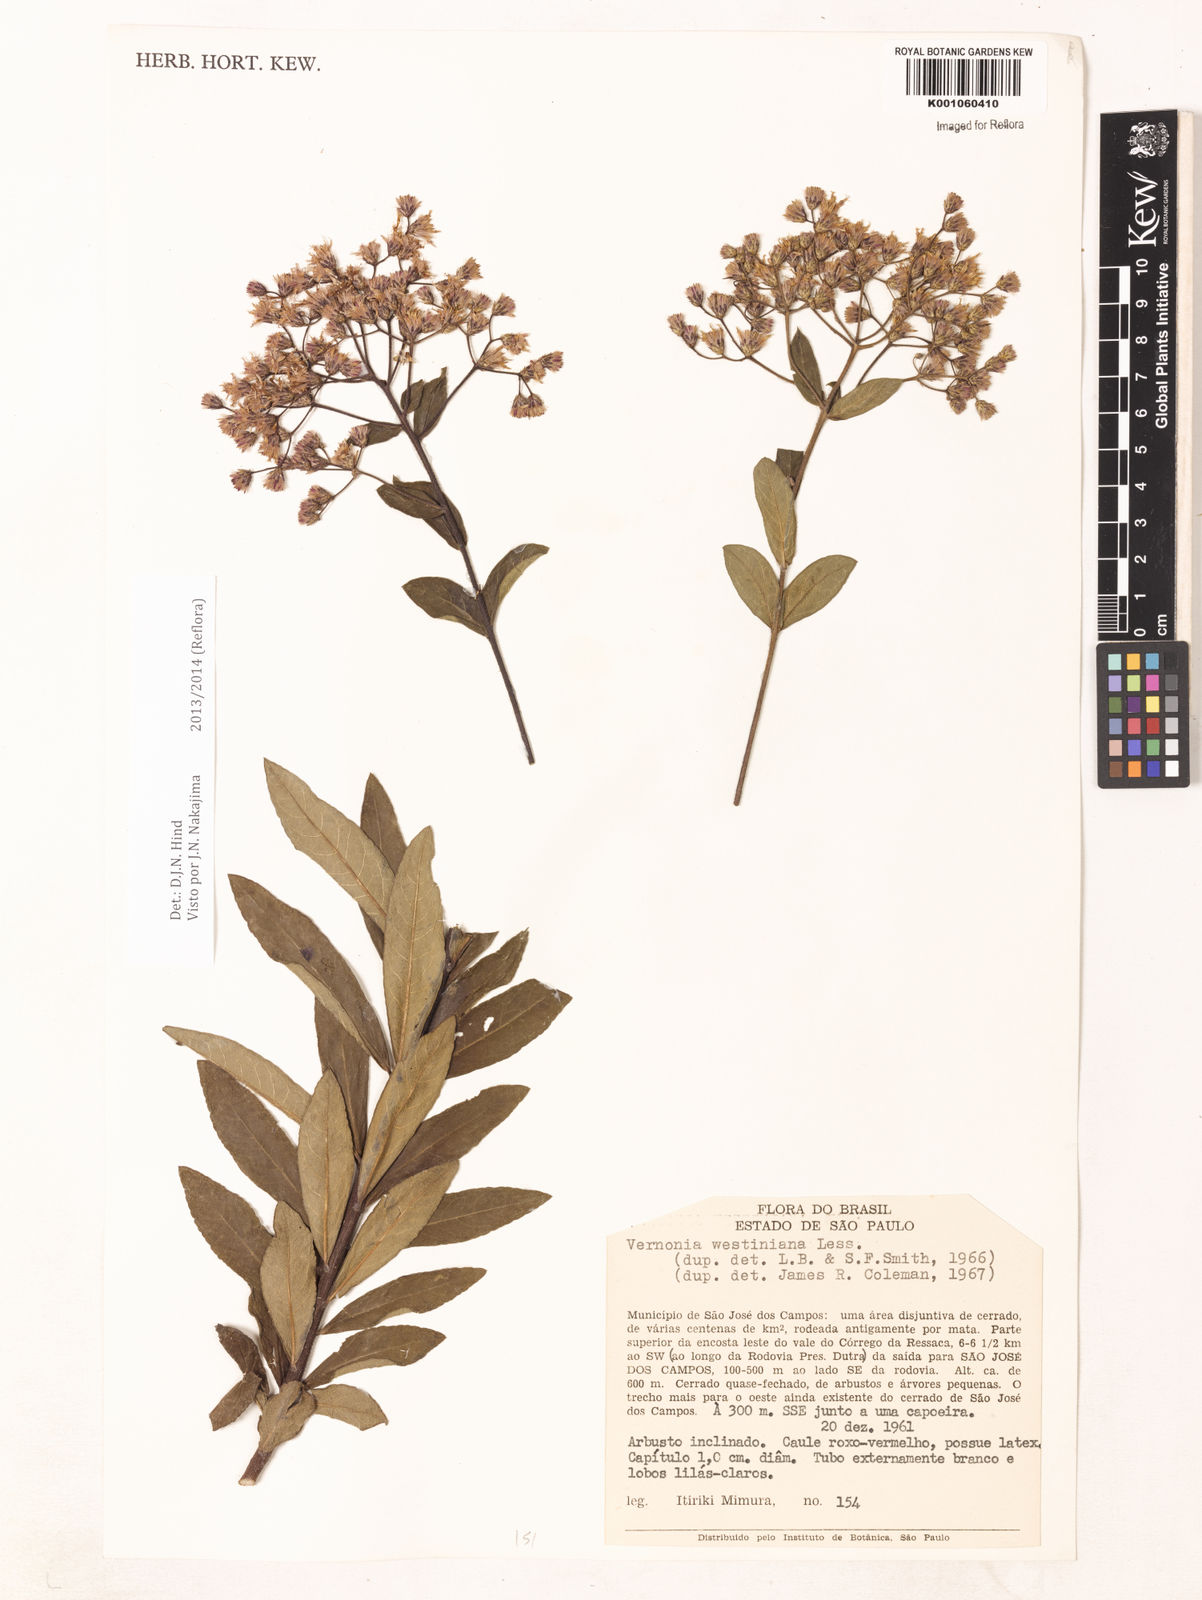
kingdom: Plantae
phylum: Tracheophyta
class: Magnoliopsida
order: Asterales
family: Asteraceae
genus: Vernonanthura
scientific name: Vernonanthura westiniana
